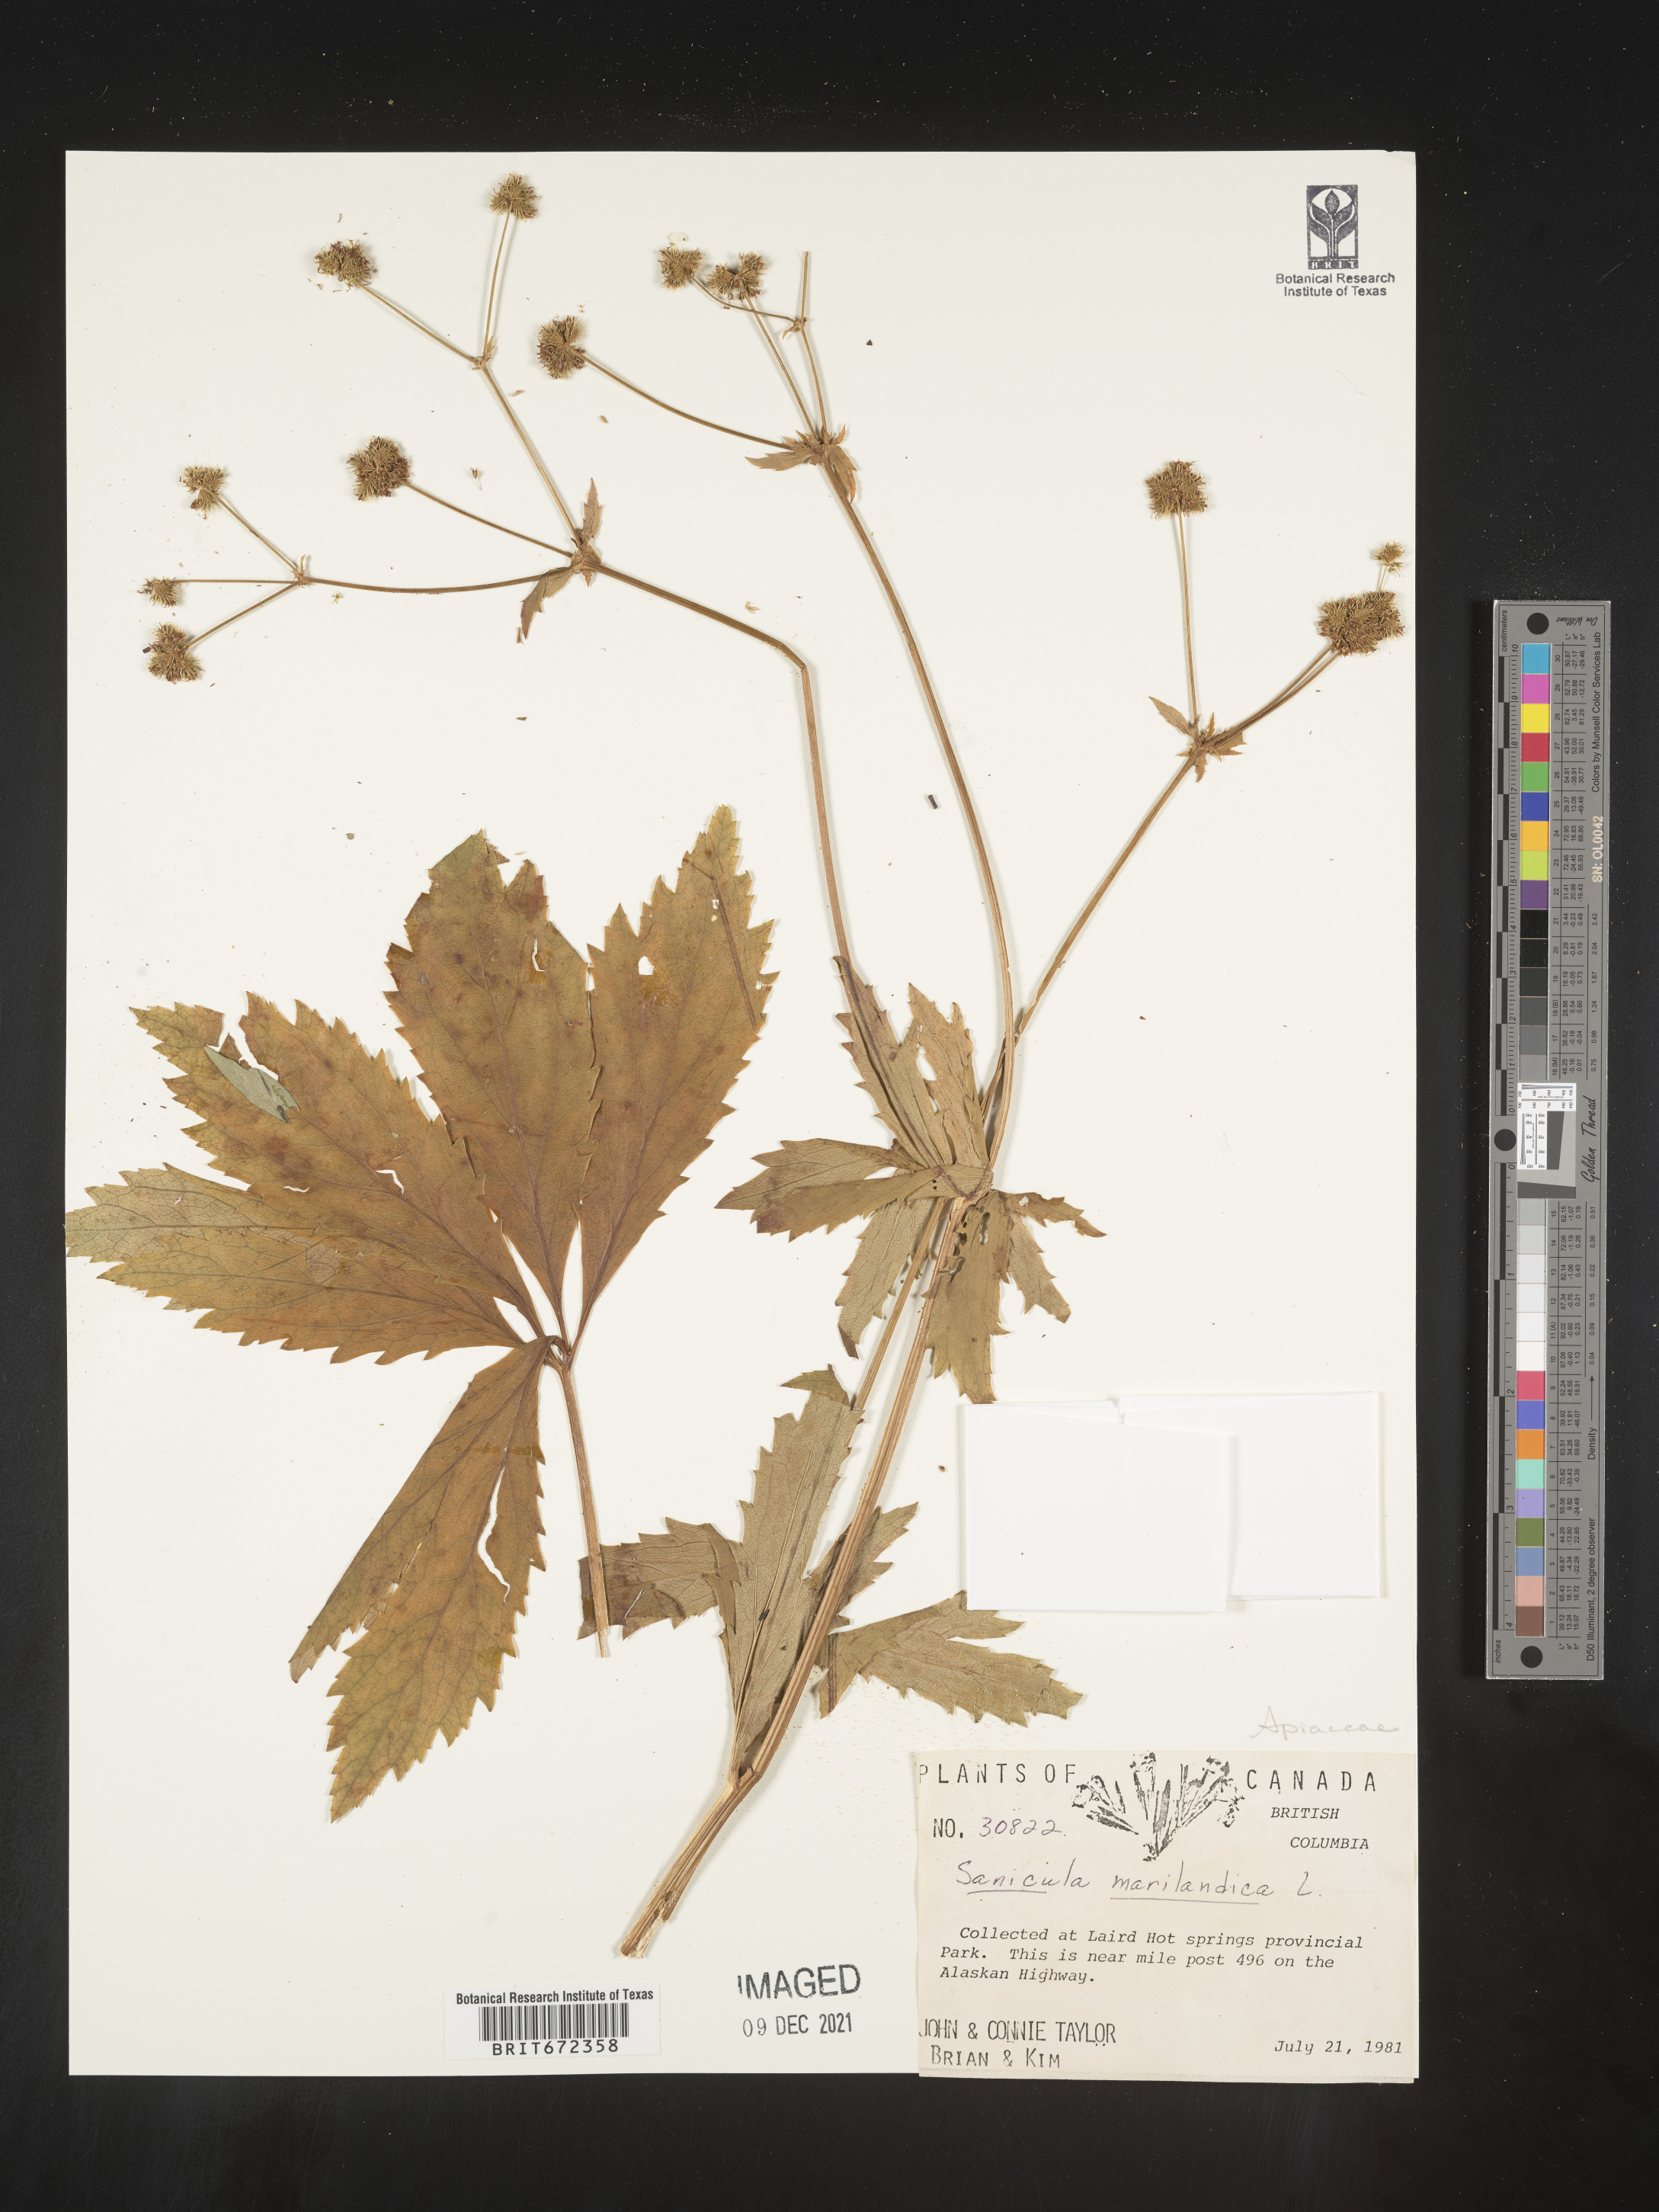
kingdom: Plantae
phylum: Tracheophyta
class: Magnoliopsida
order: Apiales
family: Apiaceae
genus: Sanicula
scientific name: Sanicula marilandica
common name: Black snakeroot
